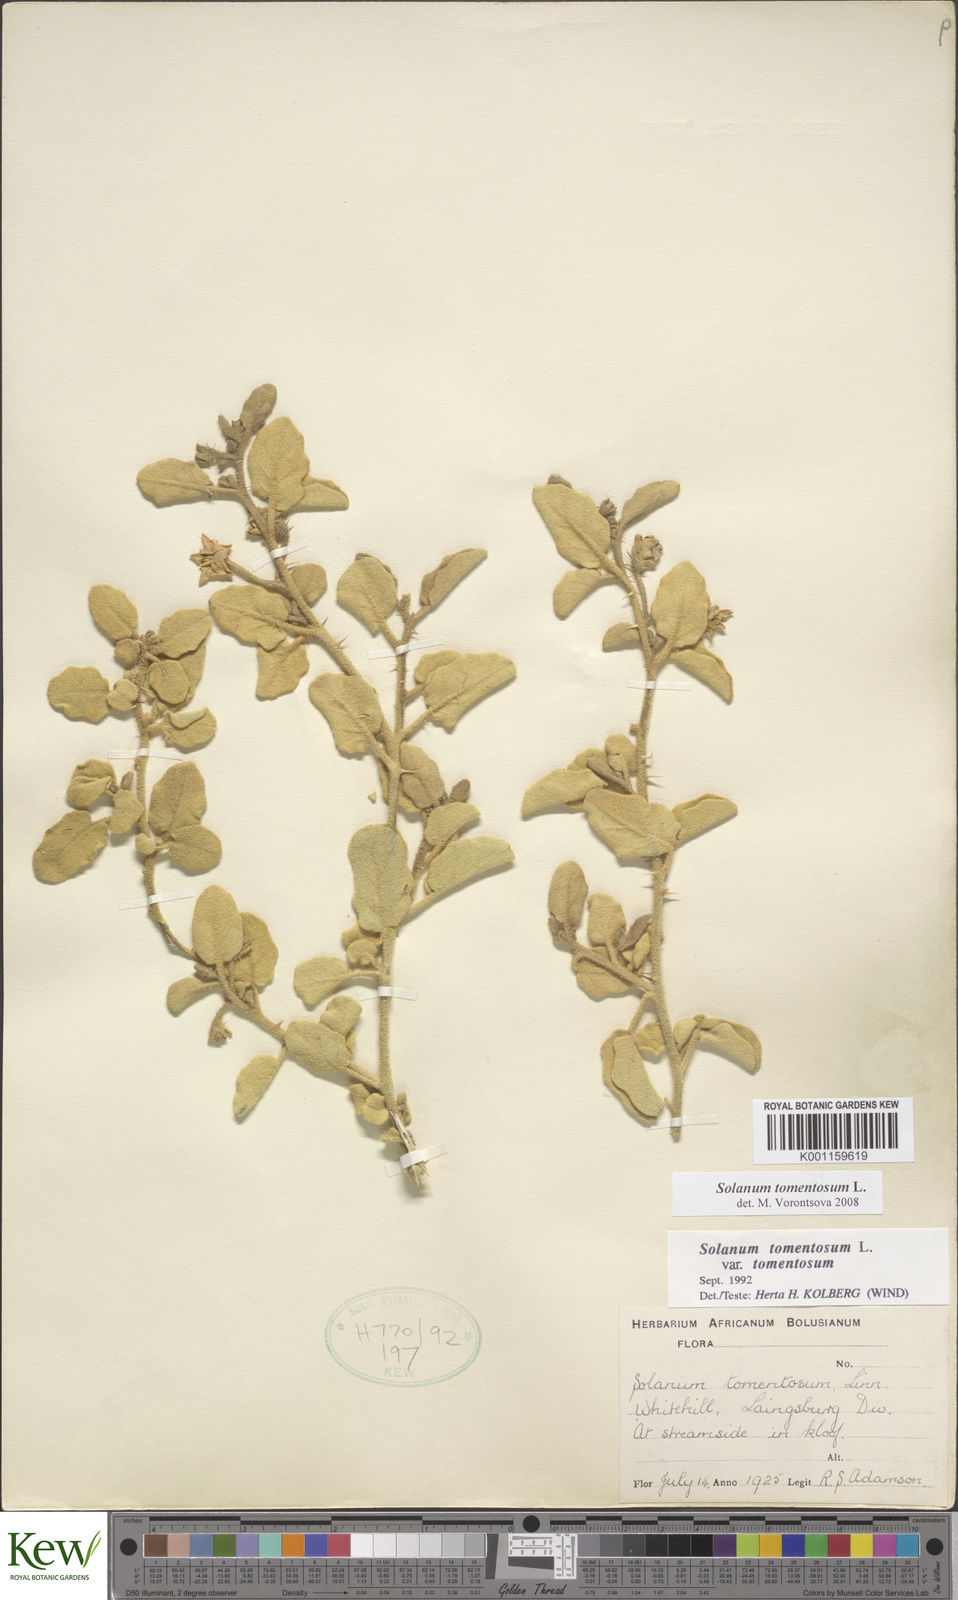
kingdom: Plantae
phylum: Tracheophyta
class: Magnoliopsida
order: Solanales
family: Solanaceae
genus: Solanum
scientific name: Solanum tomentosum
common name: Wild aubergine
